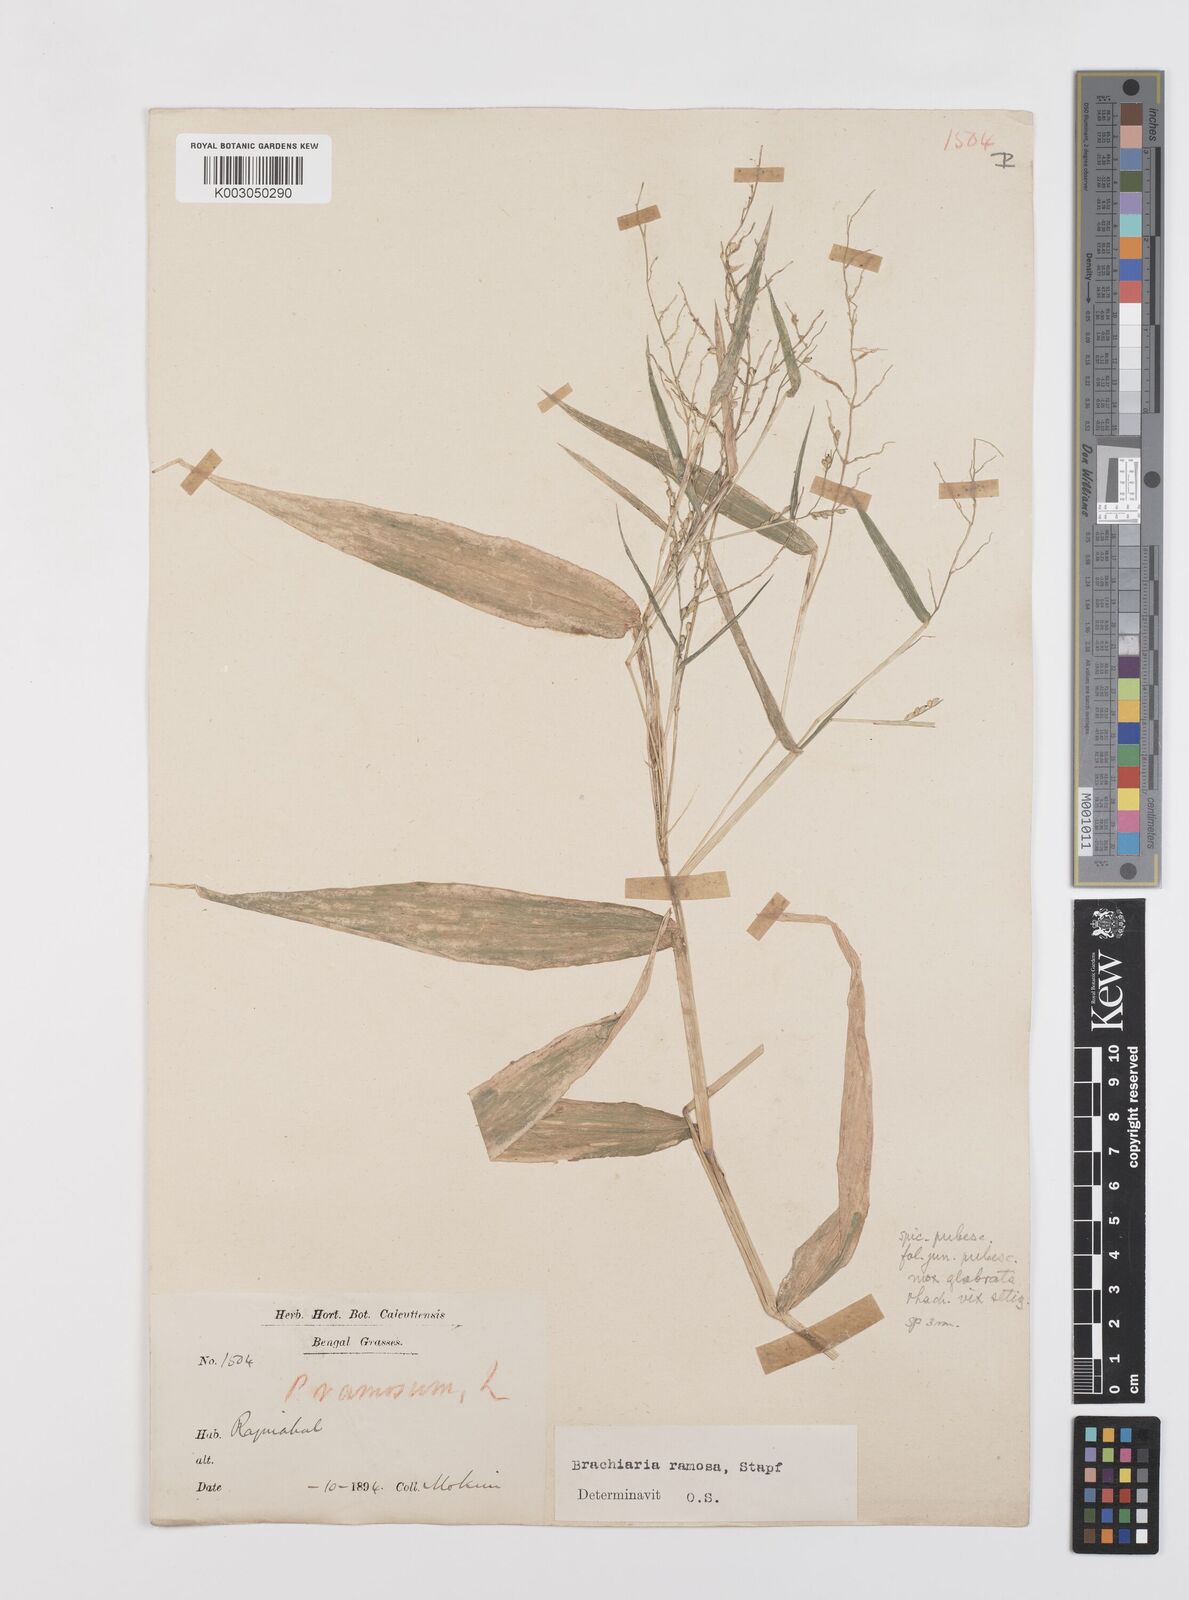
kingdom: Plantae
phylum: Tracheophyta
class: Liliopsida
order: Poales
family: Poaceae
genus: Urochloa
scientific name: Urochloa ramosa
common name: Browntop millet
